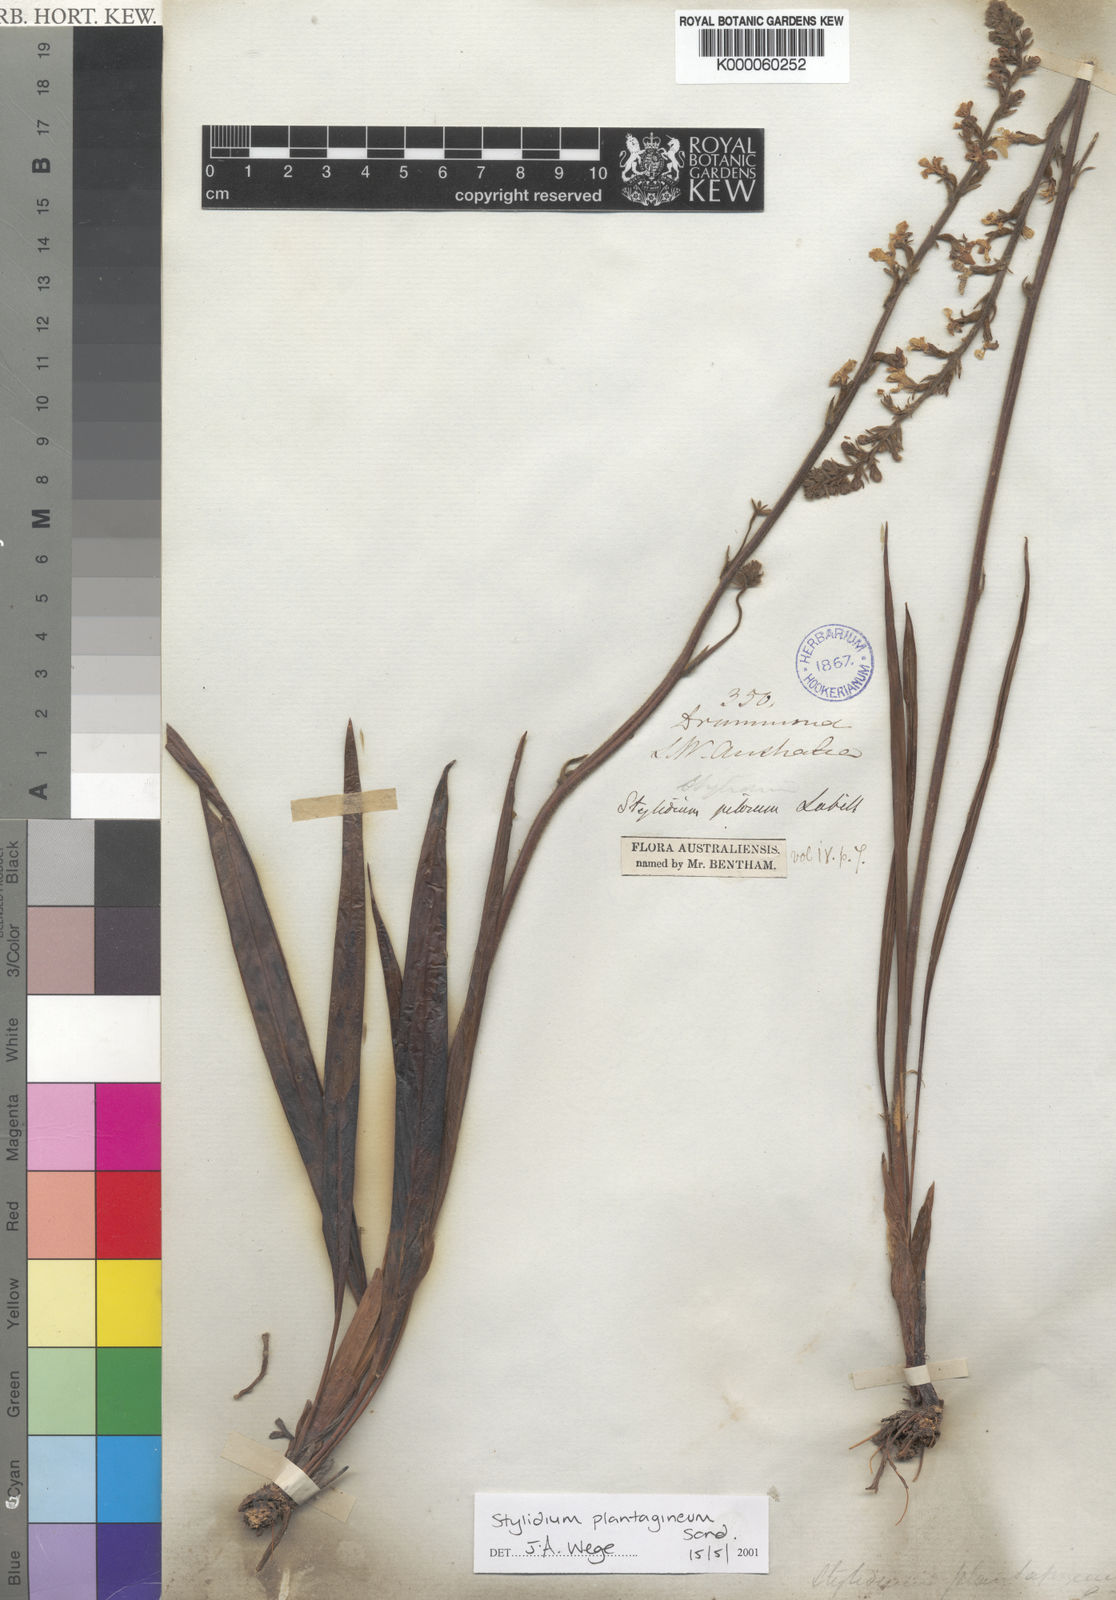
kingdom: Plantae
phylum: Tracheophyta
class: Magnoliopsida
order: Asterales
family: Stylidiaceae
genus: Stylidium
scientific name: Stylidium plantagineum
